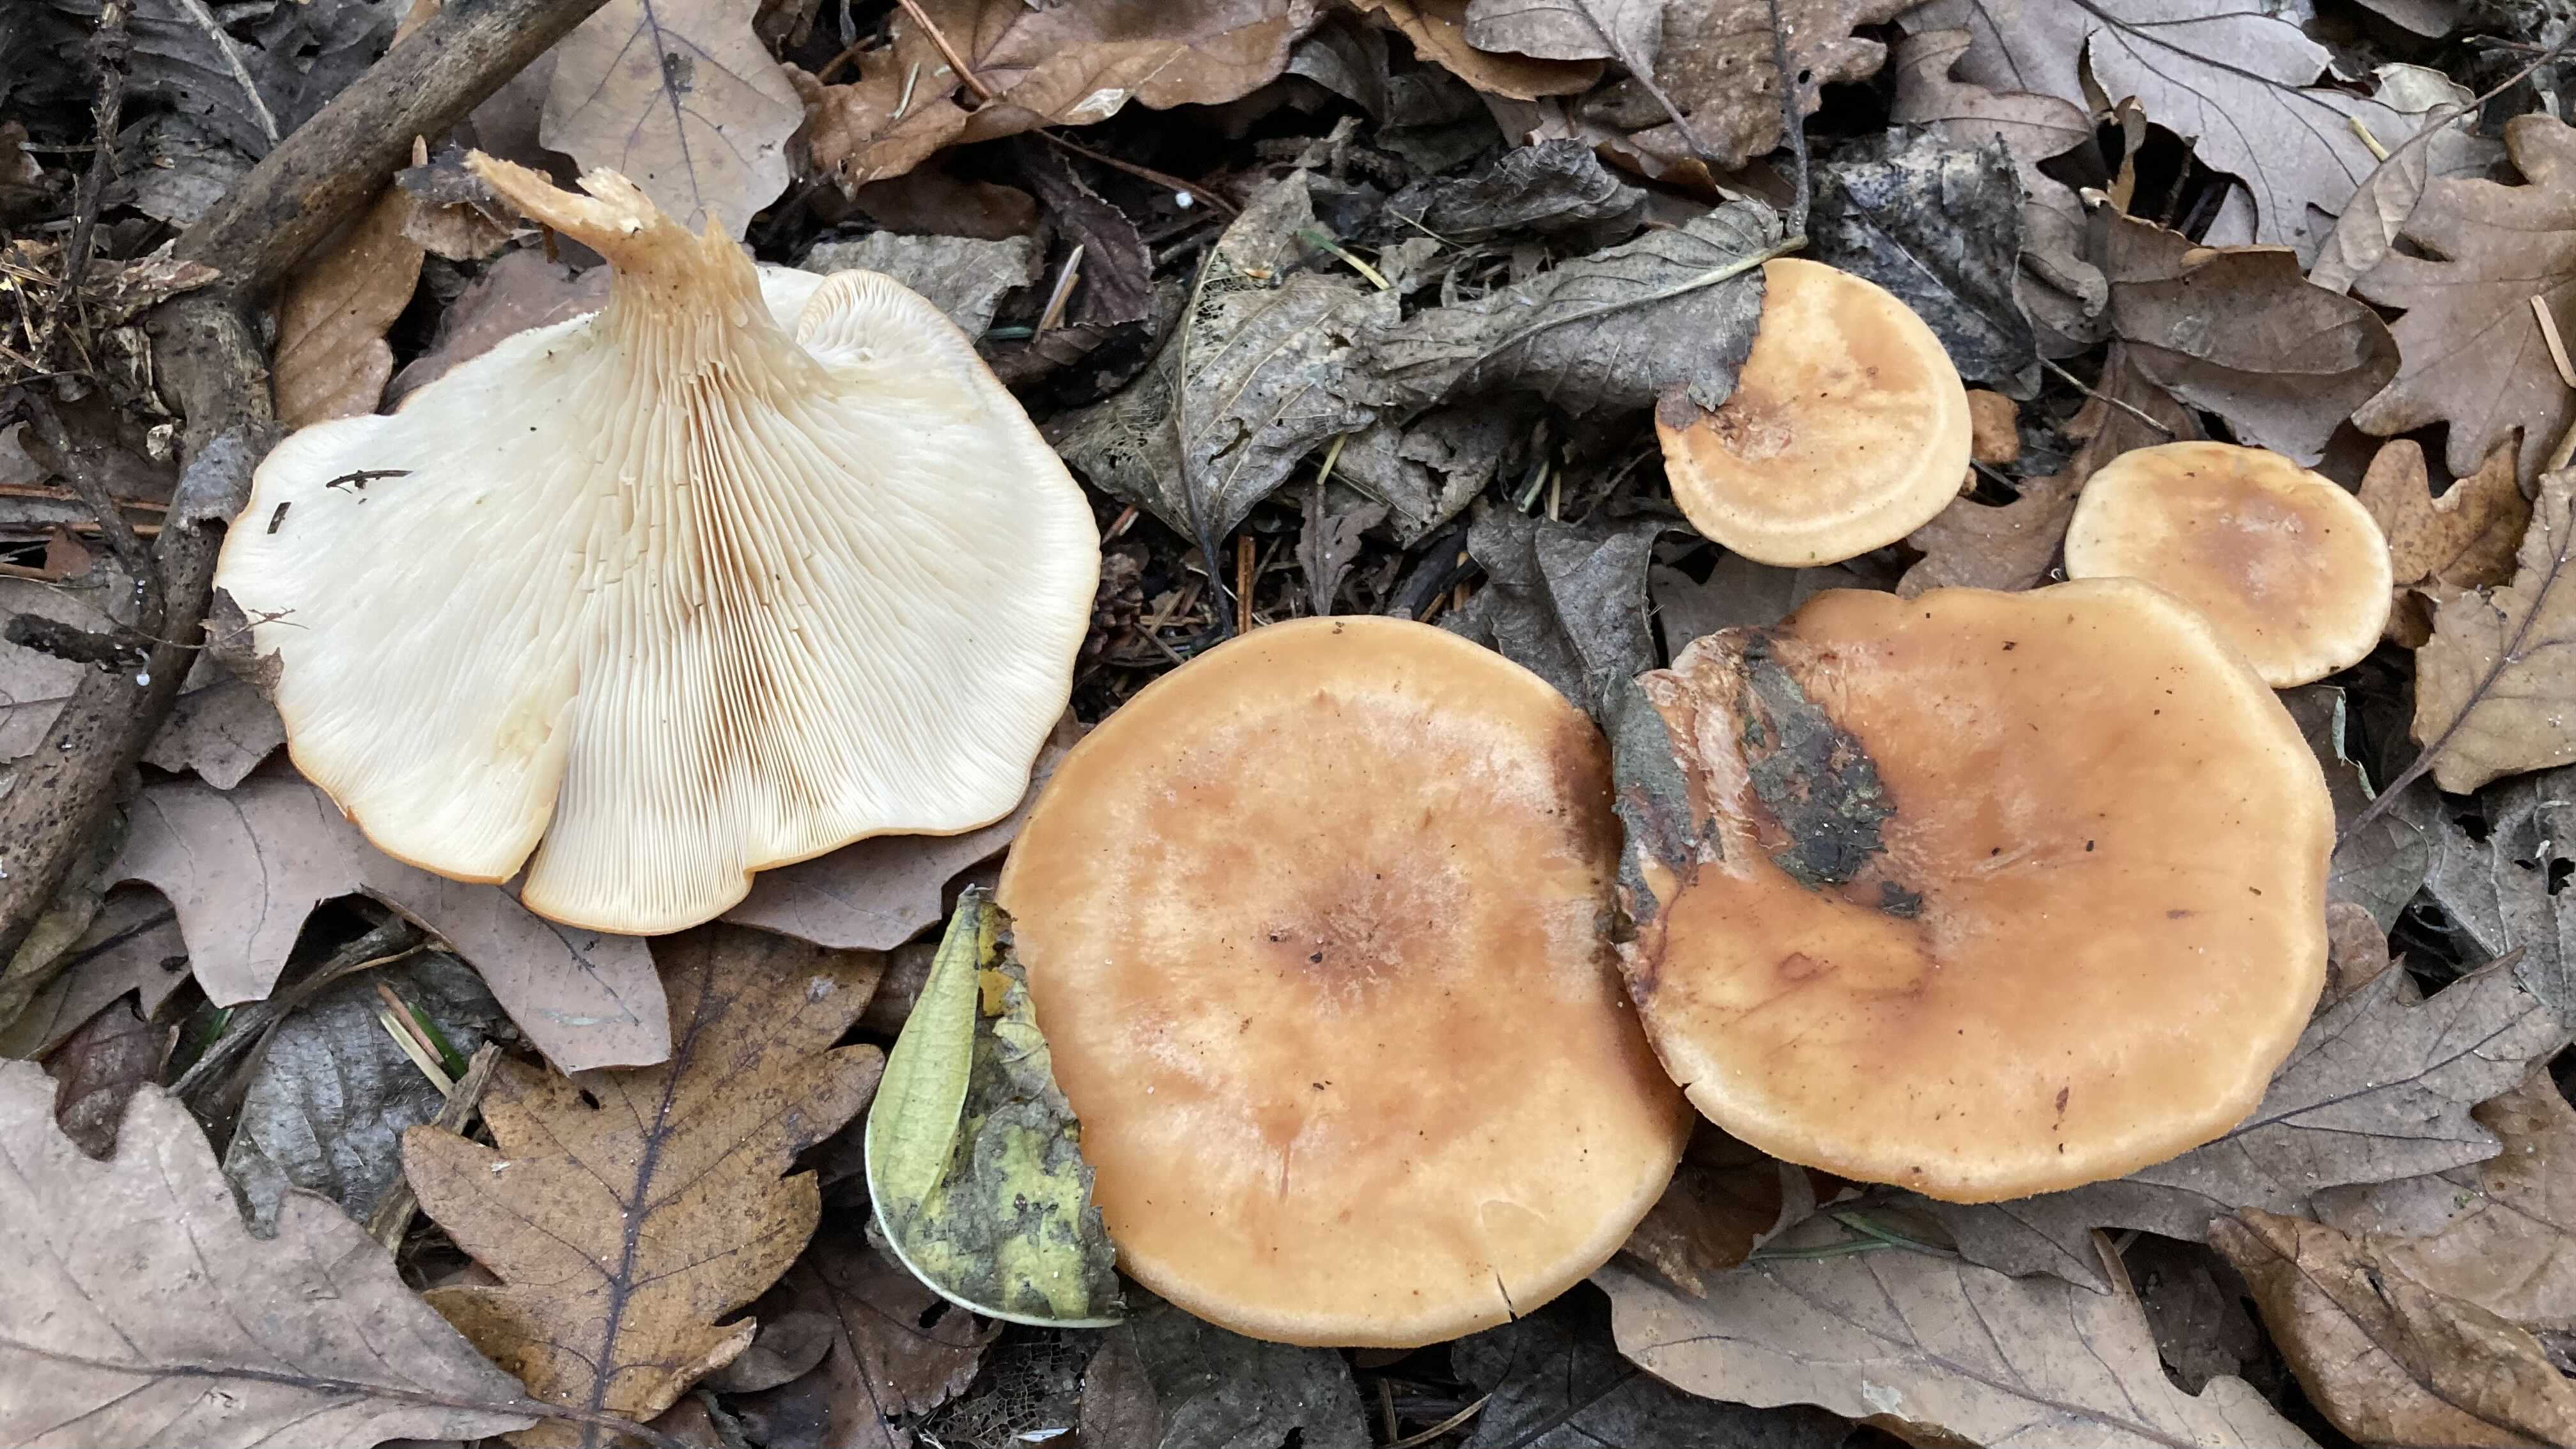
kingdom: Fungi
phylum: Basidiomycota
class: Agaricomycetes
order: Agaricales
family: Tricholomataceae
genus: Paralepista
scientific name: Paralepista flaccida
